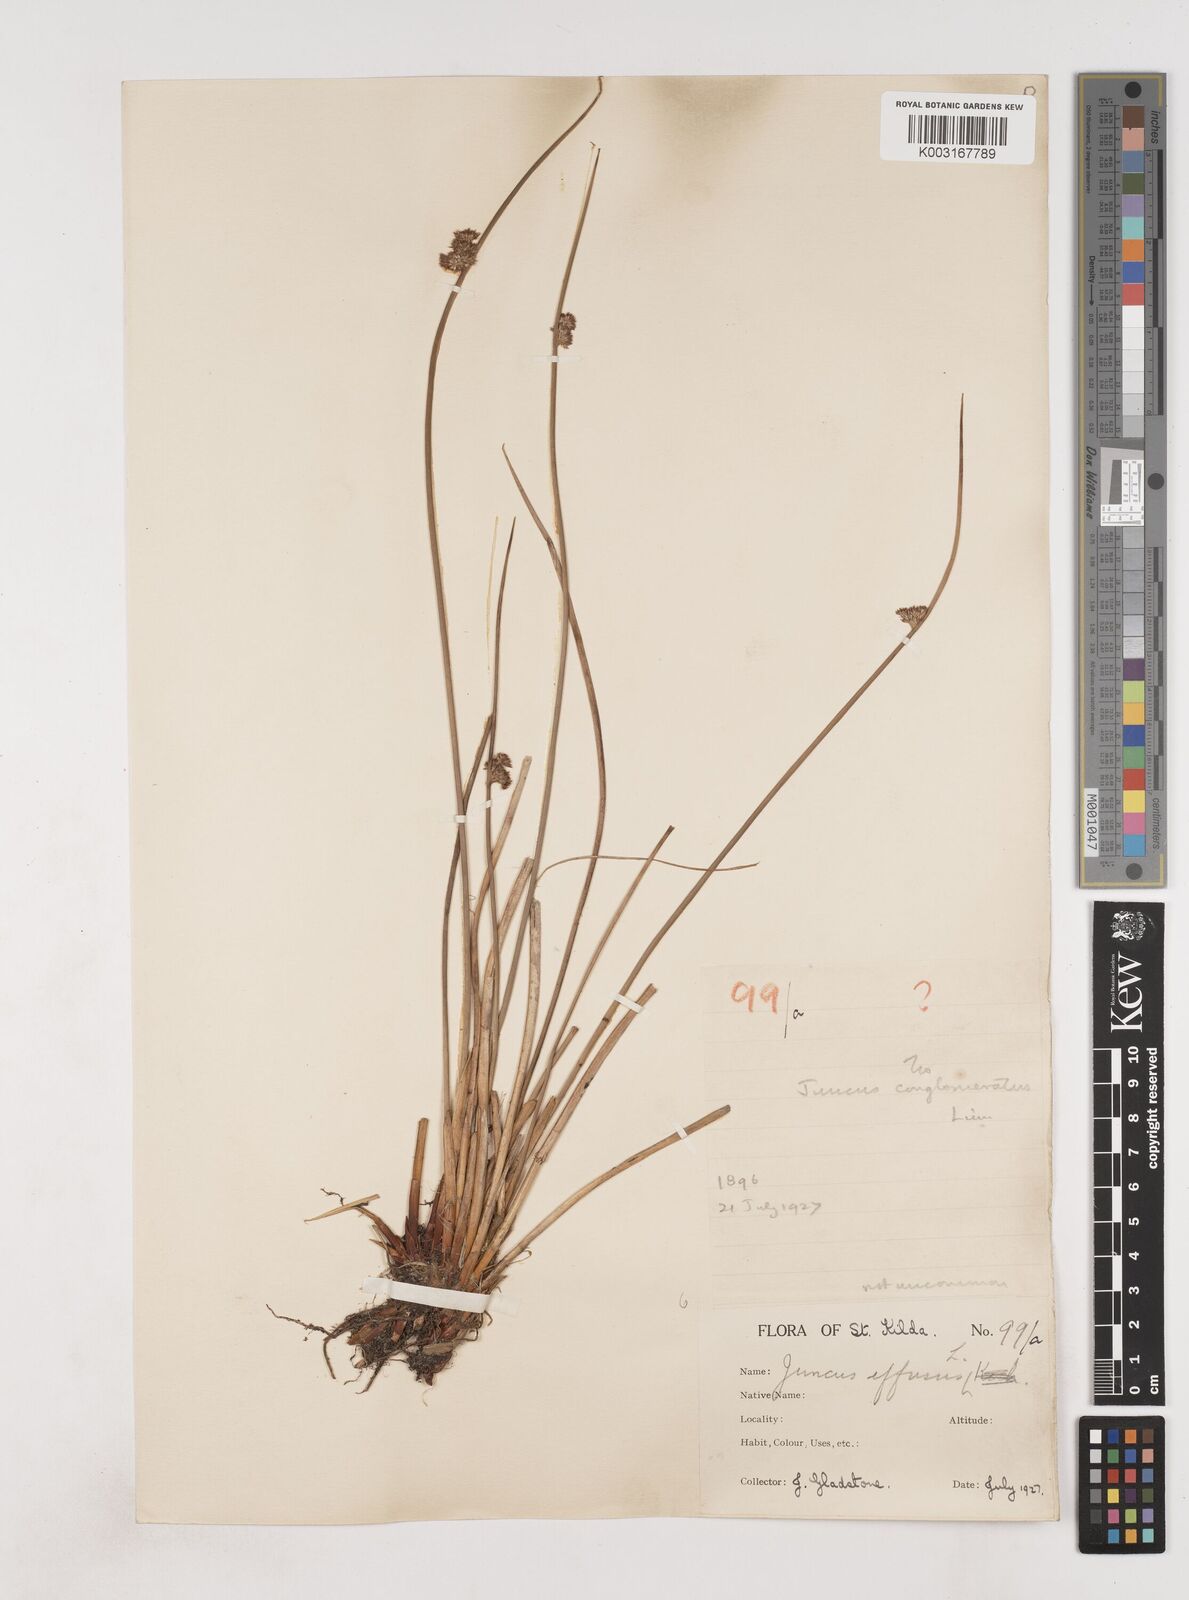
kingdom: Plantae
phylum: Tracheophyta
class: Liliopsida
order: Poales
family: Juncaceae
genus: Juncus
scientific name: Juncus effusus
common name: Soft rush
